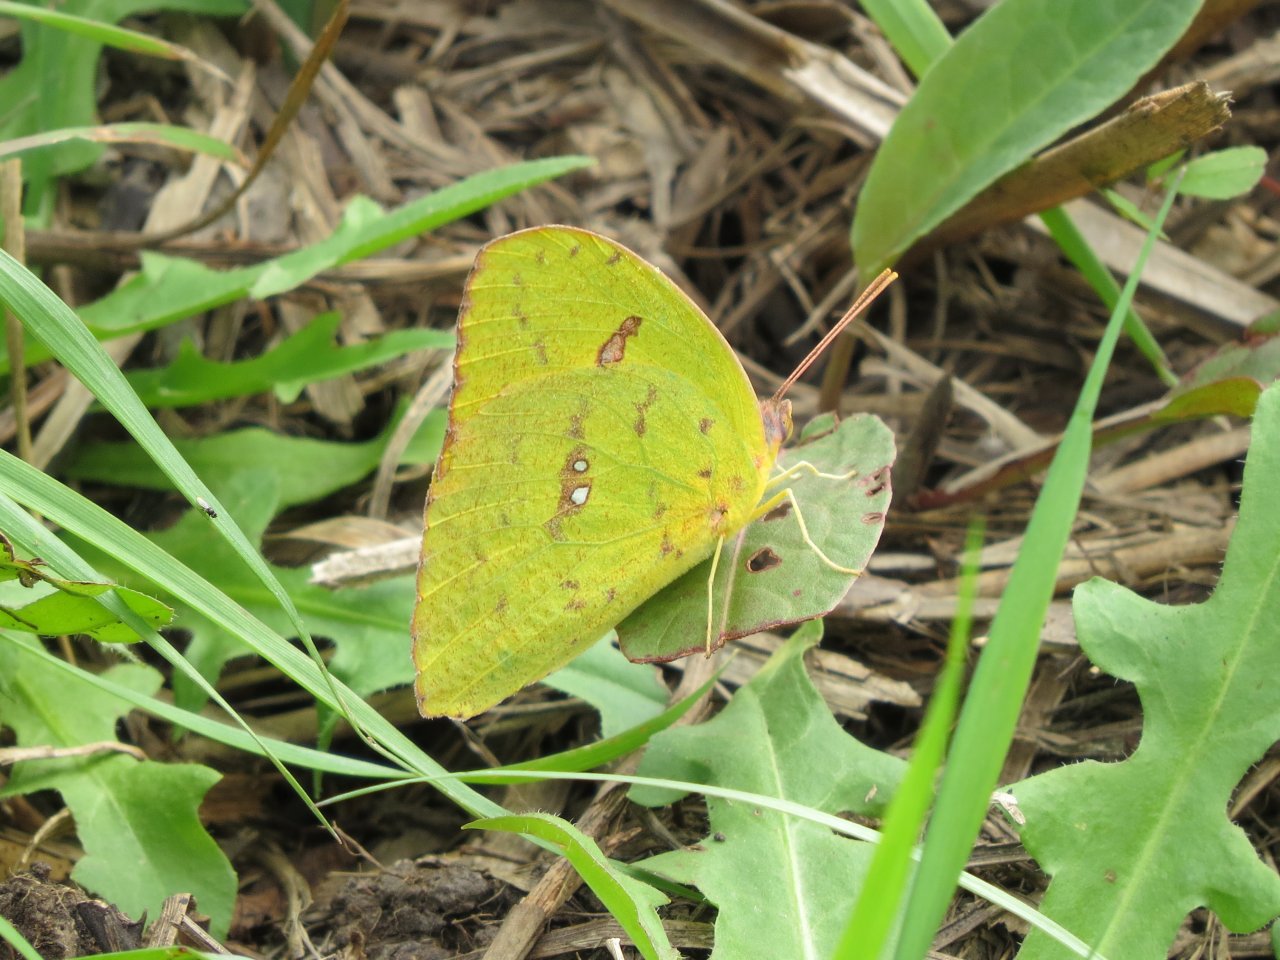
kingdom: Animalia
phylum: Arthropoda
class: Insecta
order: Lepidoptera
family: Pieridae
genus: Phoebis
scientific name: Phoebis sennae
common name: Cloudless Sulphur
